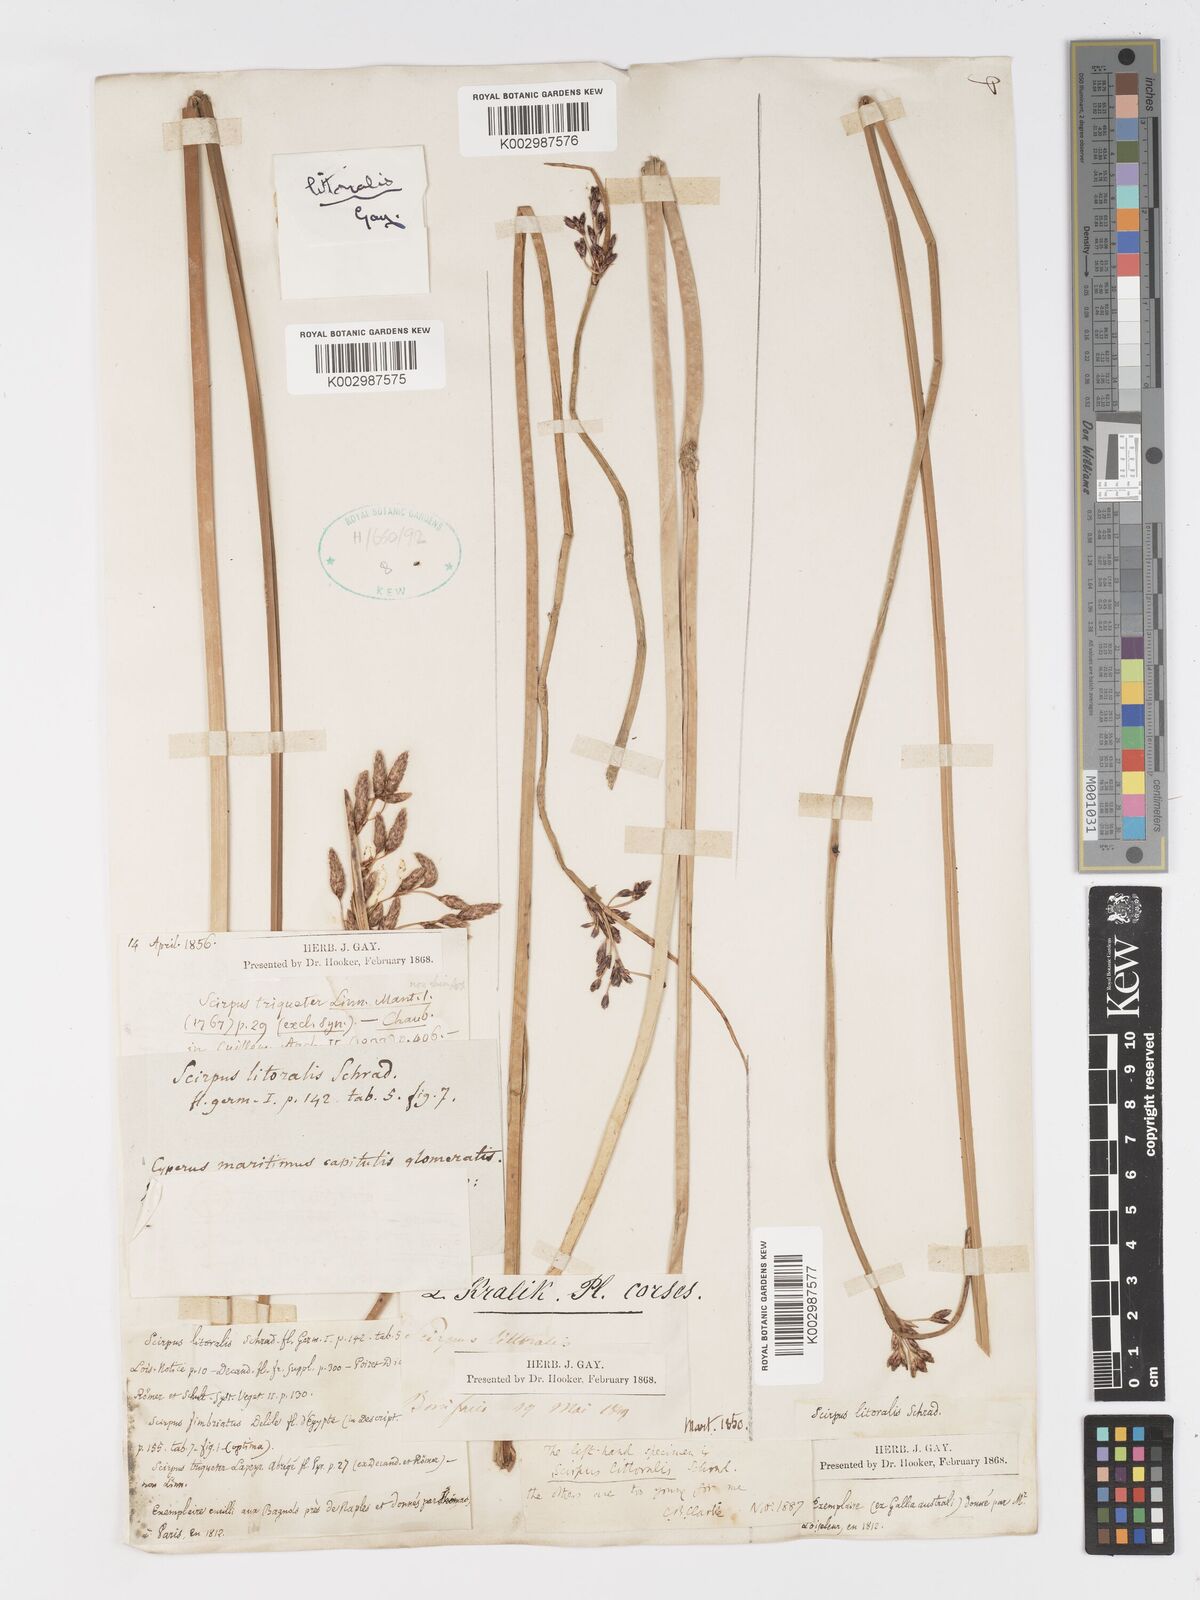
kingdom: Plantae
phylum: Tracheophyta
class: Liliopsida
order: Poales
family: Cyperaceae
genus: Schoenoplectus
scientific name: Schoenoplectus litoralis
